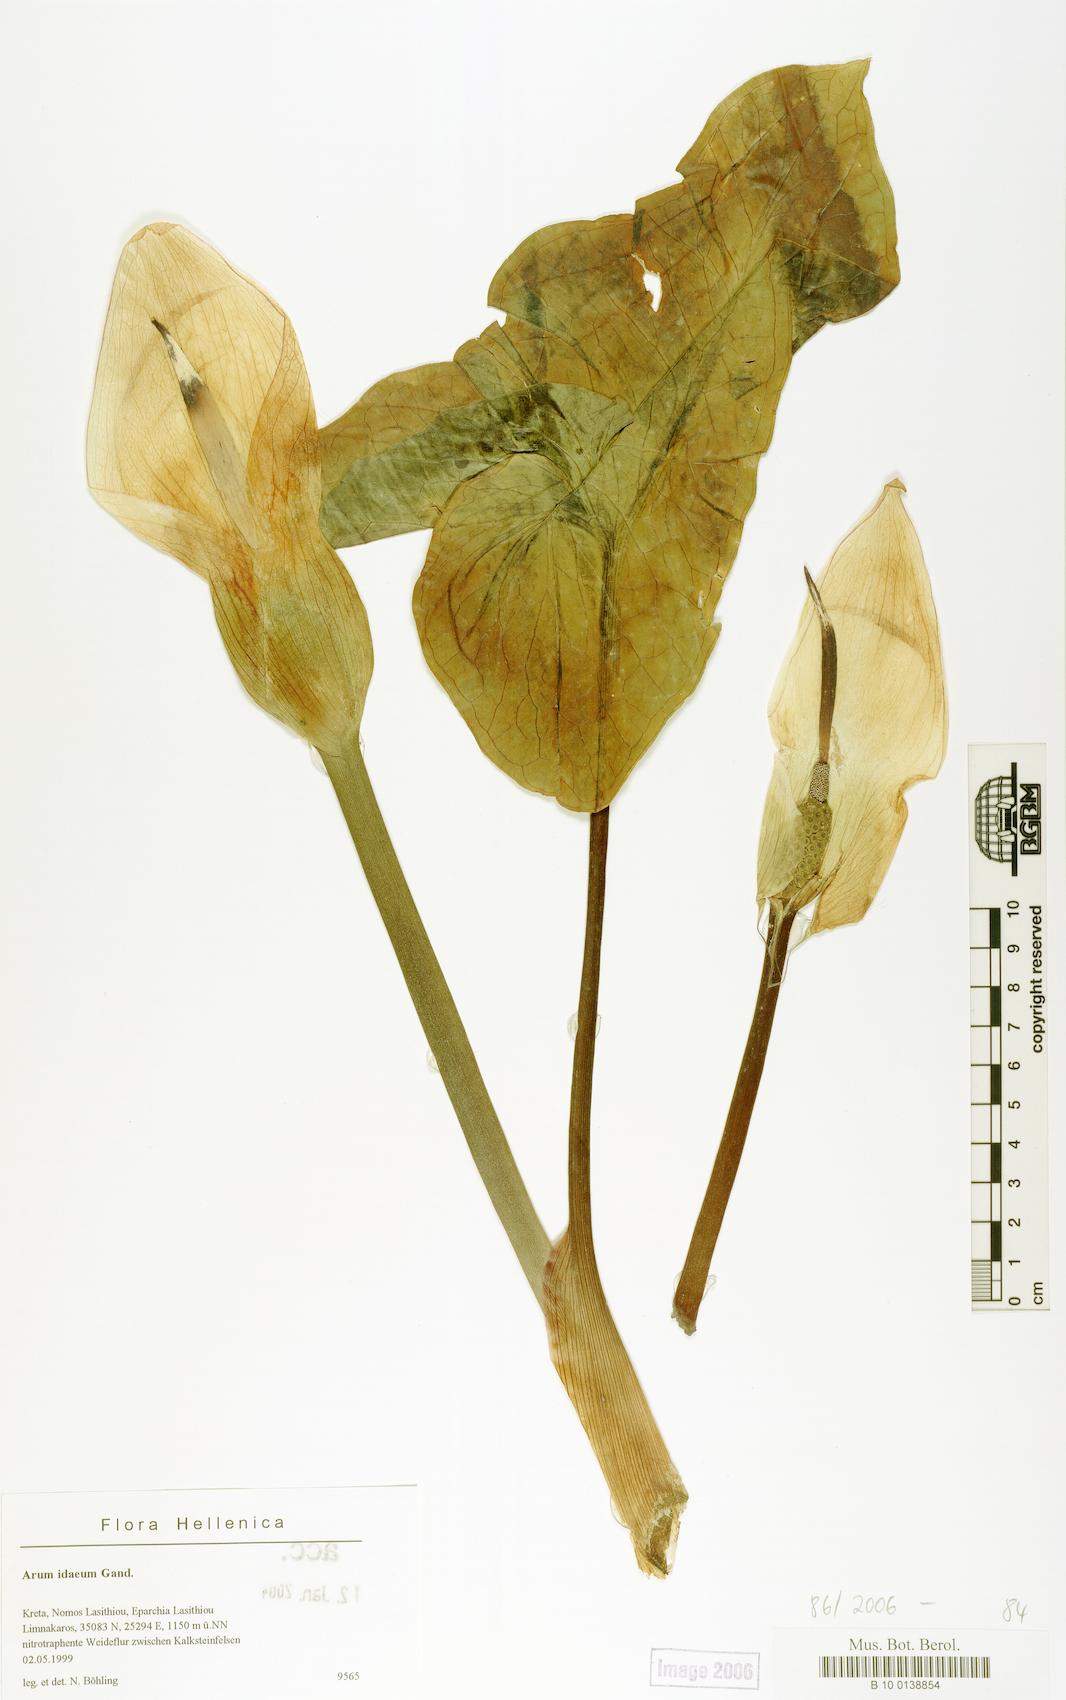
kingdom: Plantae
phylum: Tracheophyta
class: Liliopsida
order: Alismatales
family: Araceae
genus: Arum
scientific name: Arum idaeum
